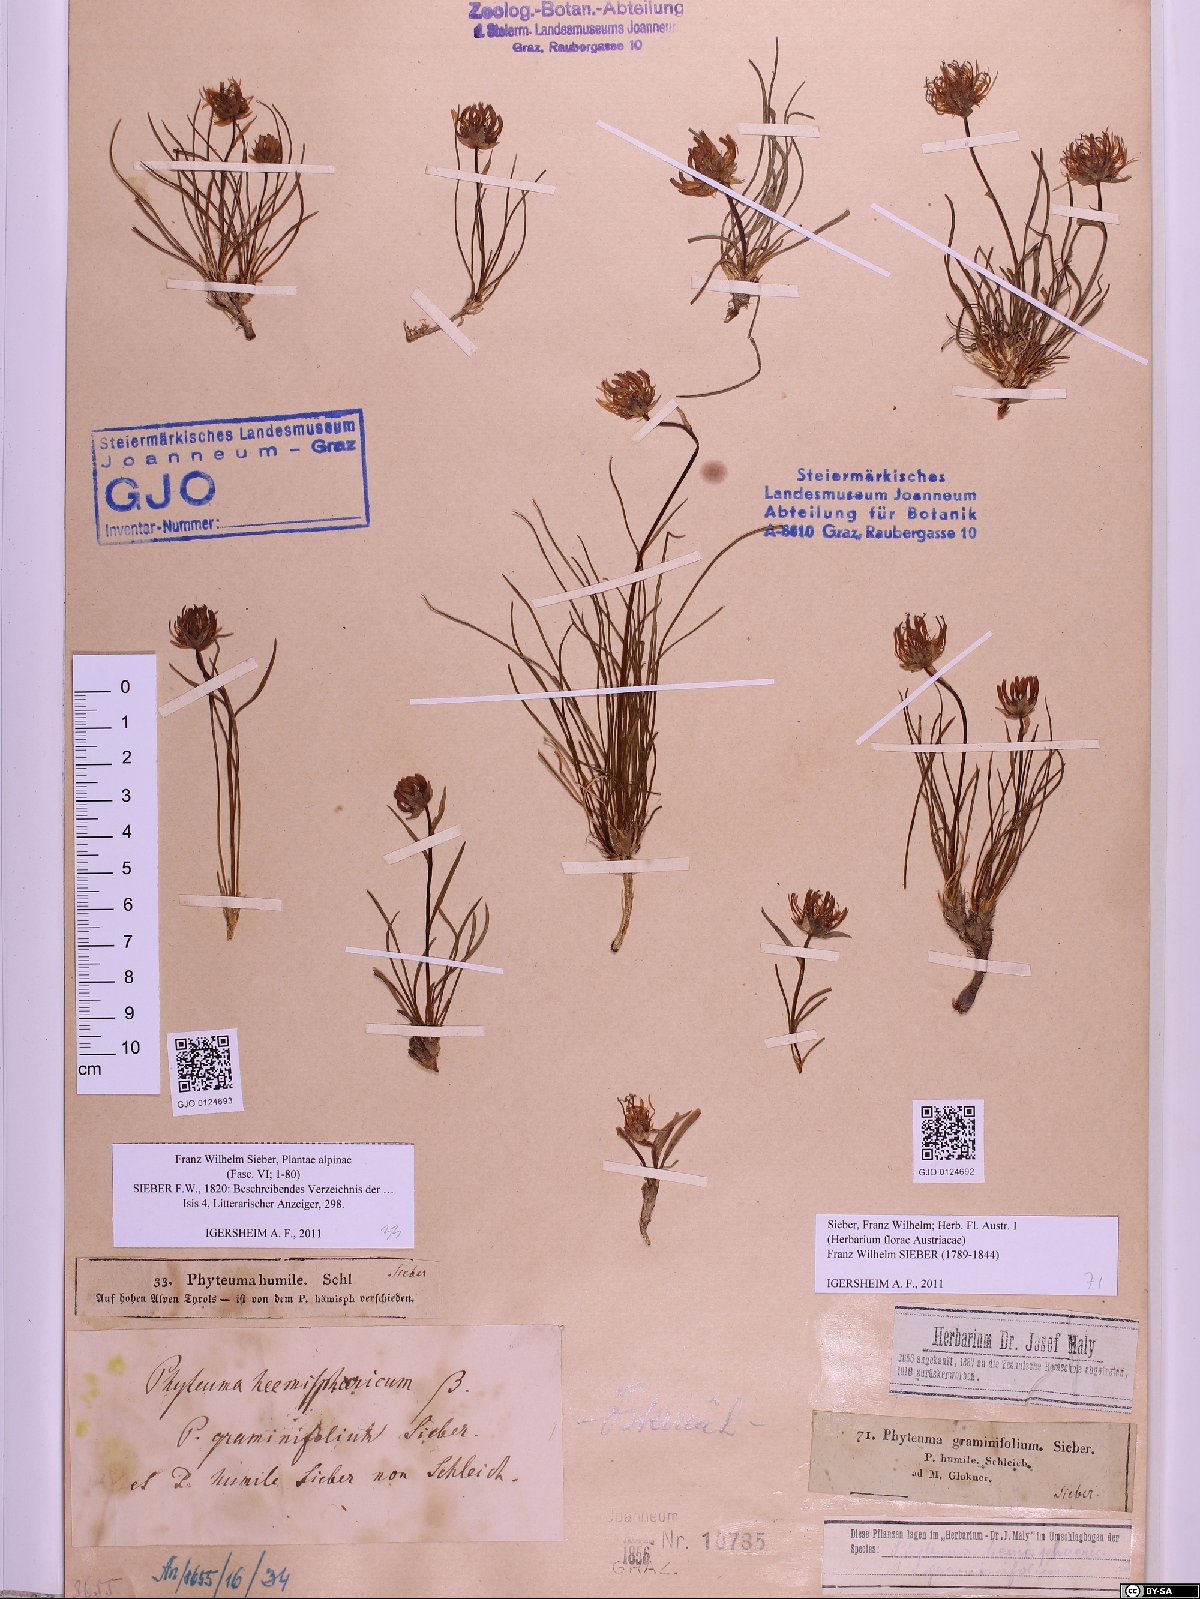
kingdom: Plantae
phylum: Tracheophyta
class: Magnoliopsida
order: Asterales
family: Campanulaceae
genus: Phyteuma
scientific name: Phyteuma hemisphaericum
